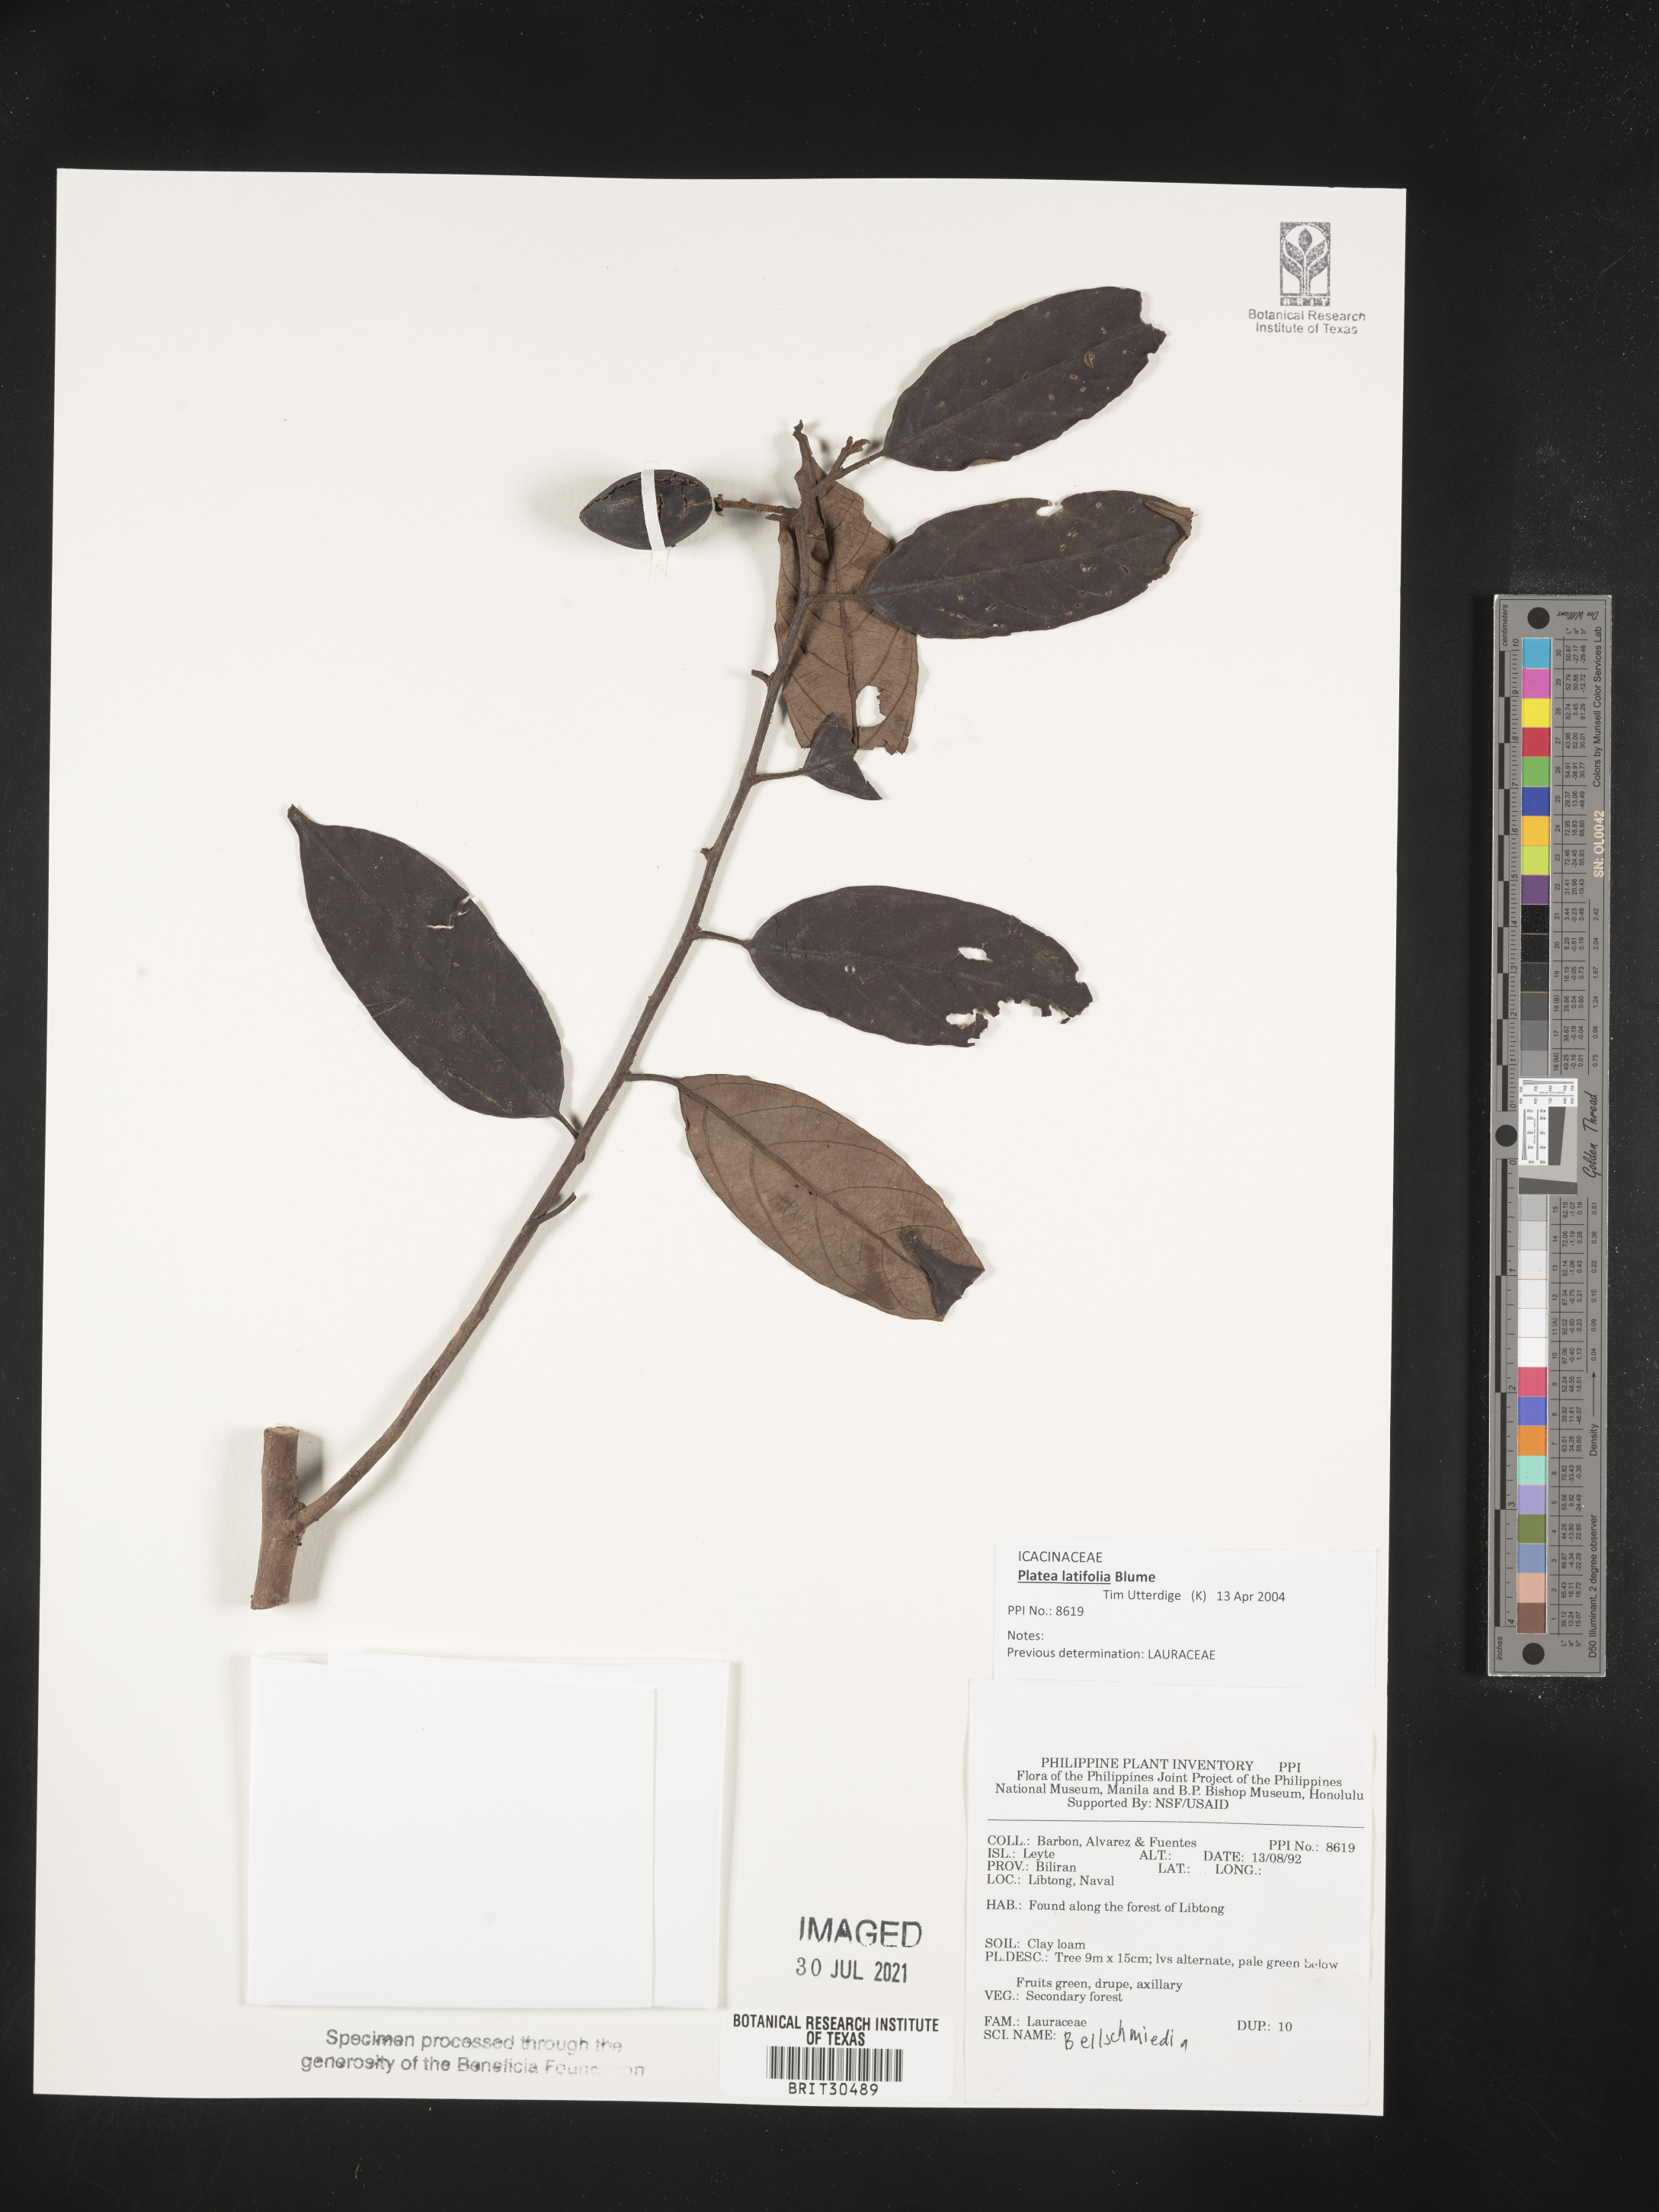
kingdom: Plantae
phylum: Tracheophyta
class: Magnoliopsida
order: Laurales
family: Lauraceae
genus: Beilschmiedia
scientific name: Beilschmiedia
